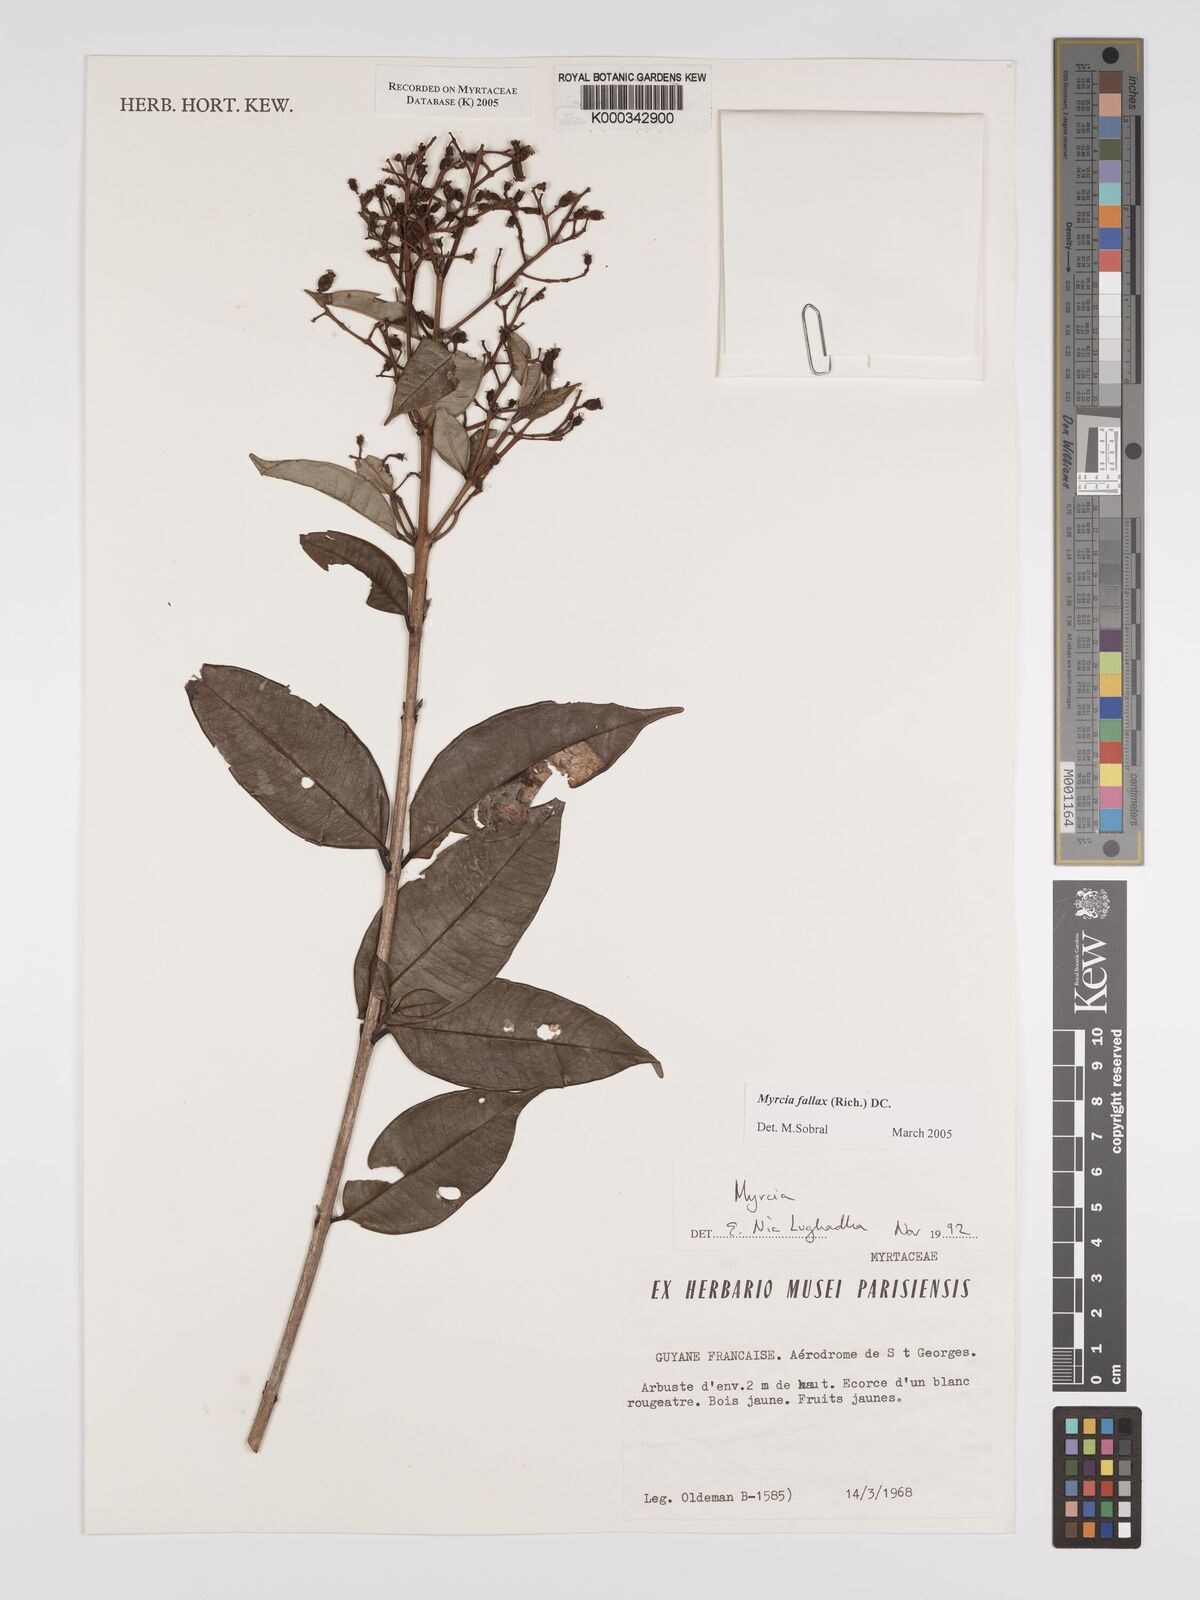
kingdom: Plantae
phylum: Tracheophyta
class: Magnoliopsida
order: Myrtales
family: Myrtaceae
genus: Myrcia
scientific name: Myrcia splendens
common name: Surinam cherry
